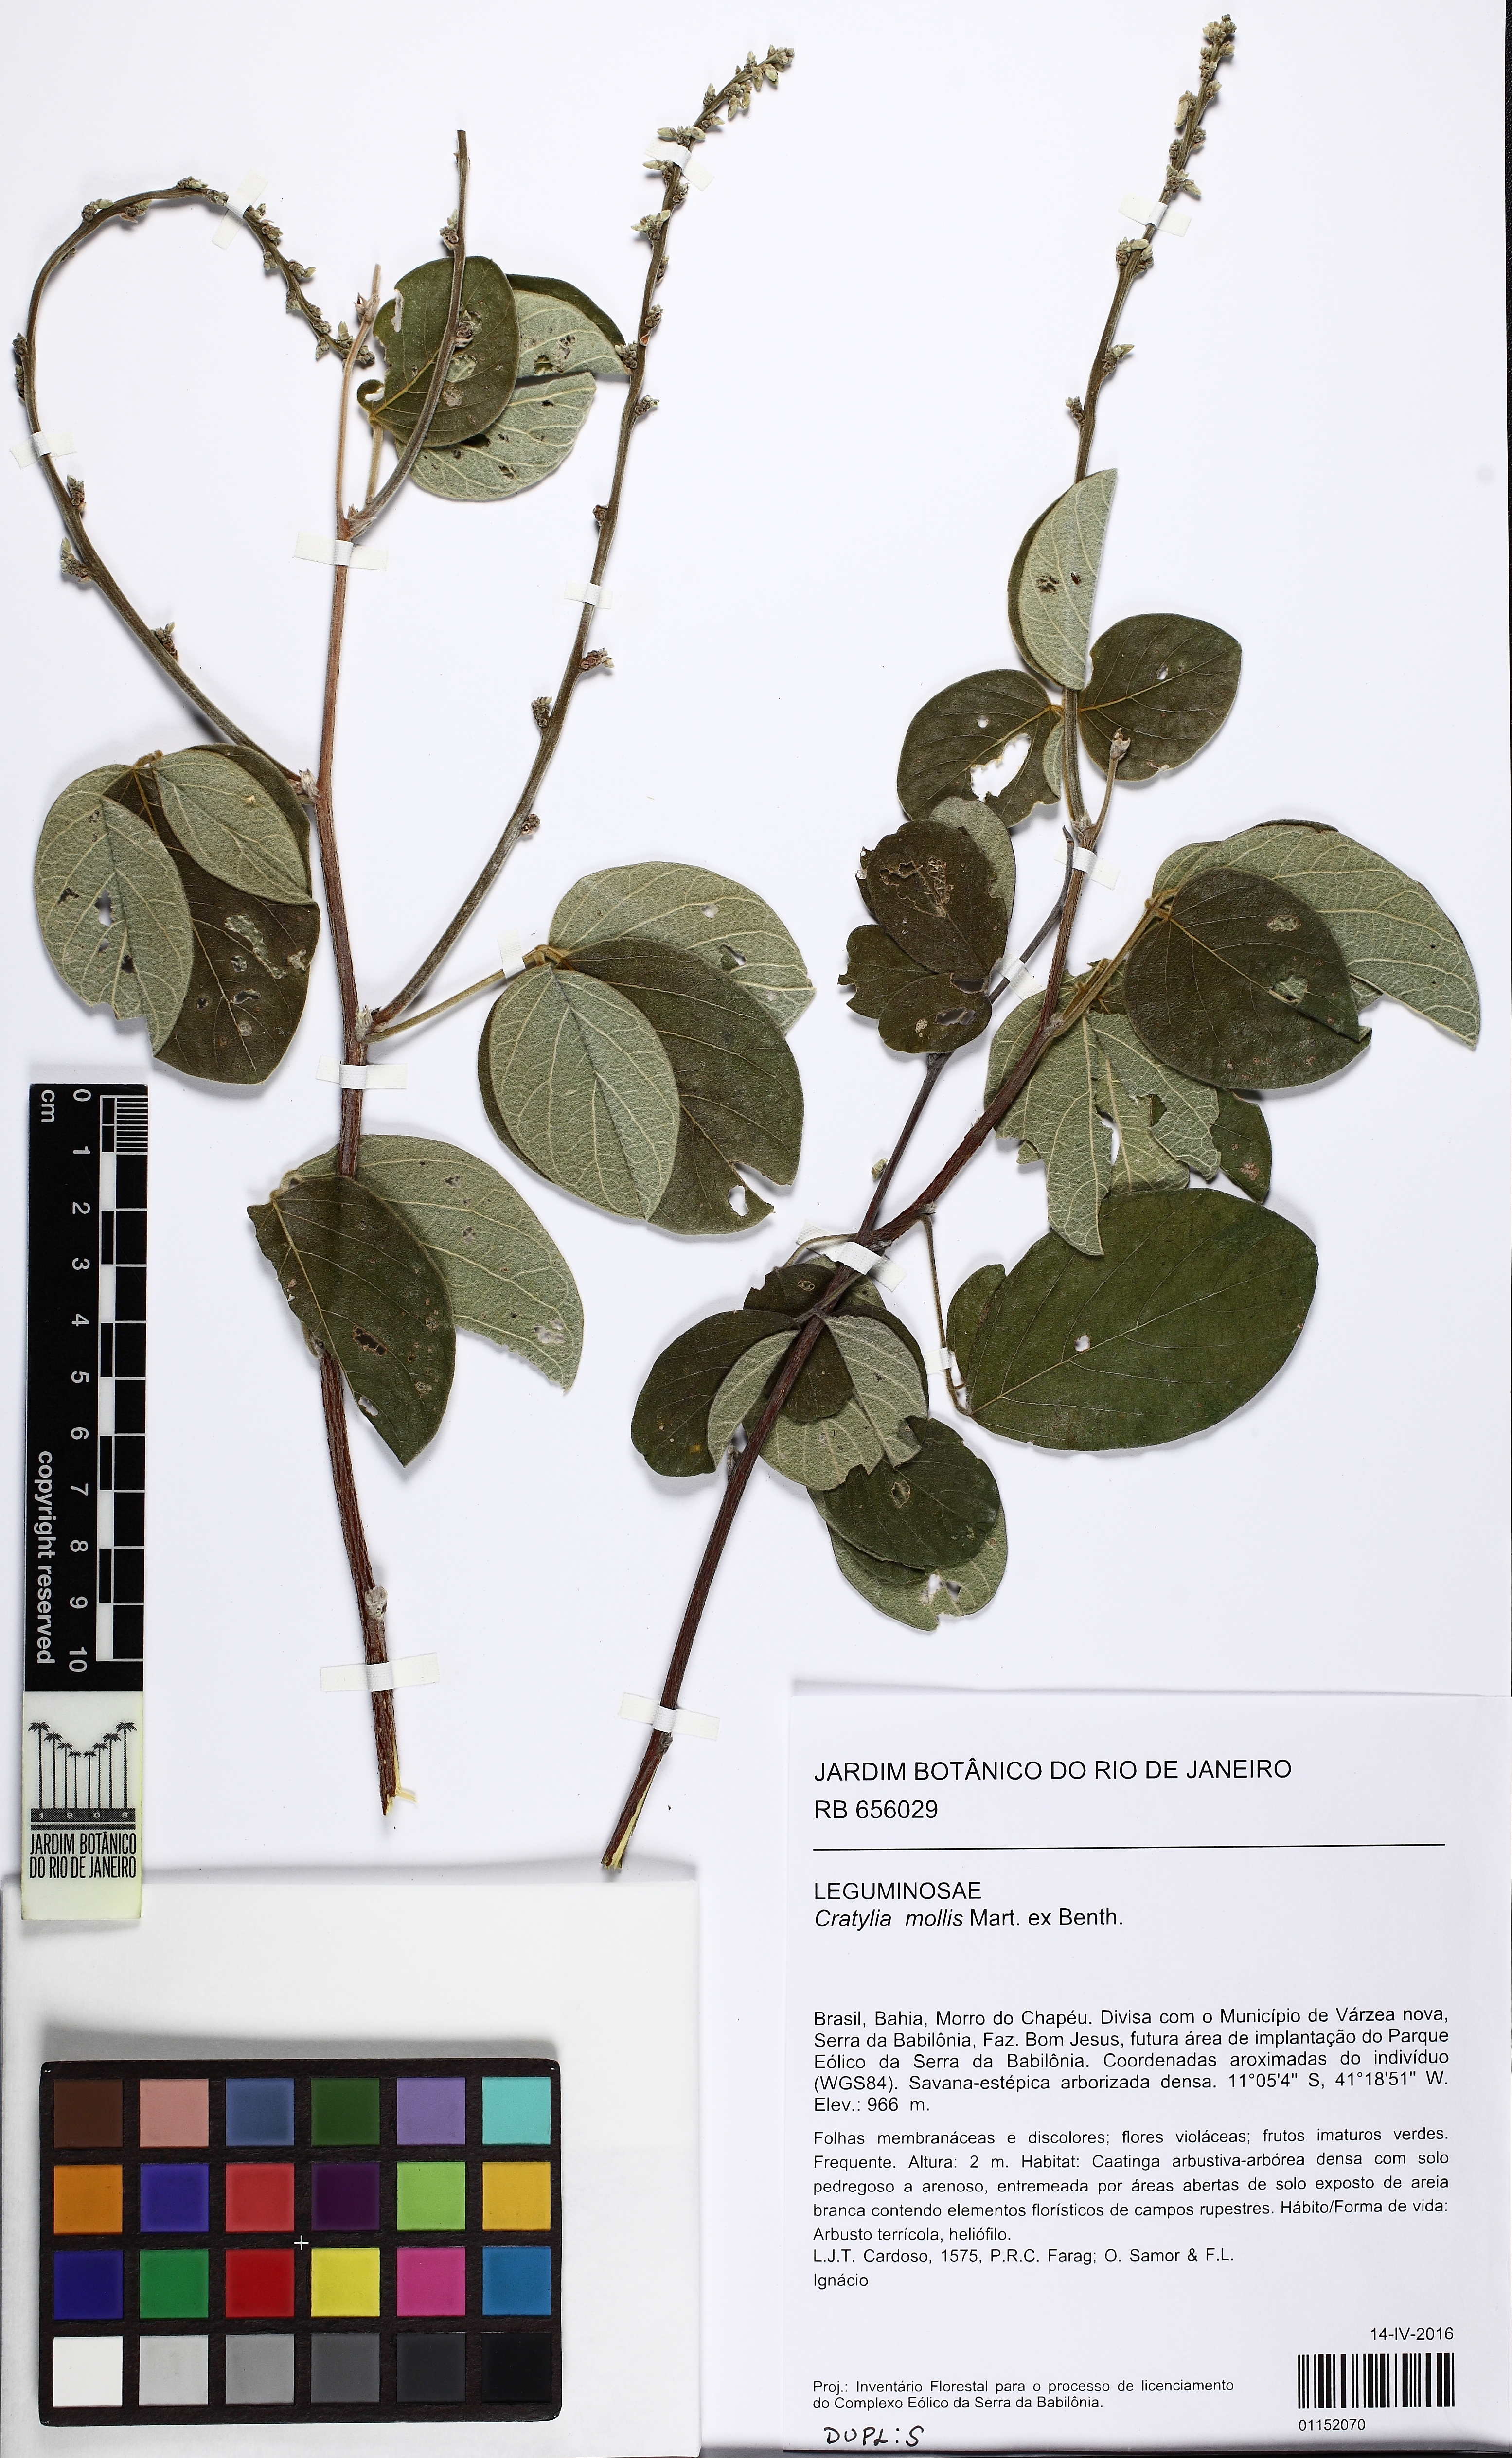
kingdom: Plantae
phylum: Tracheophyta
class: Magnoliopsida
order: Fabales
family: Fabaceae
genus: Cratylia
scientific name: Cratylia mollis
